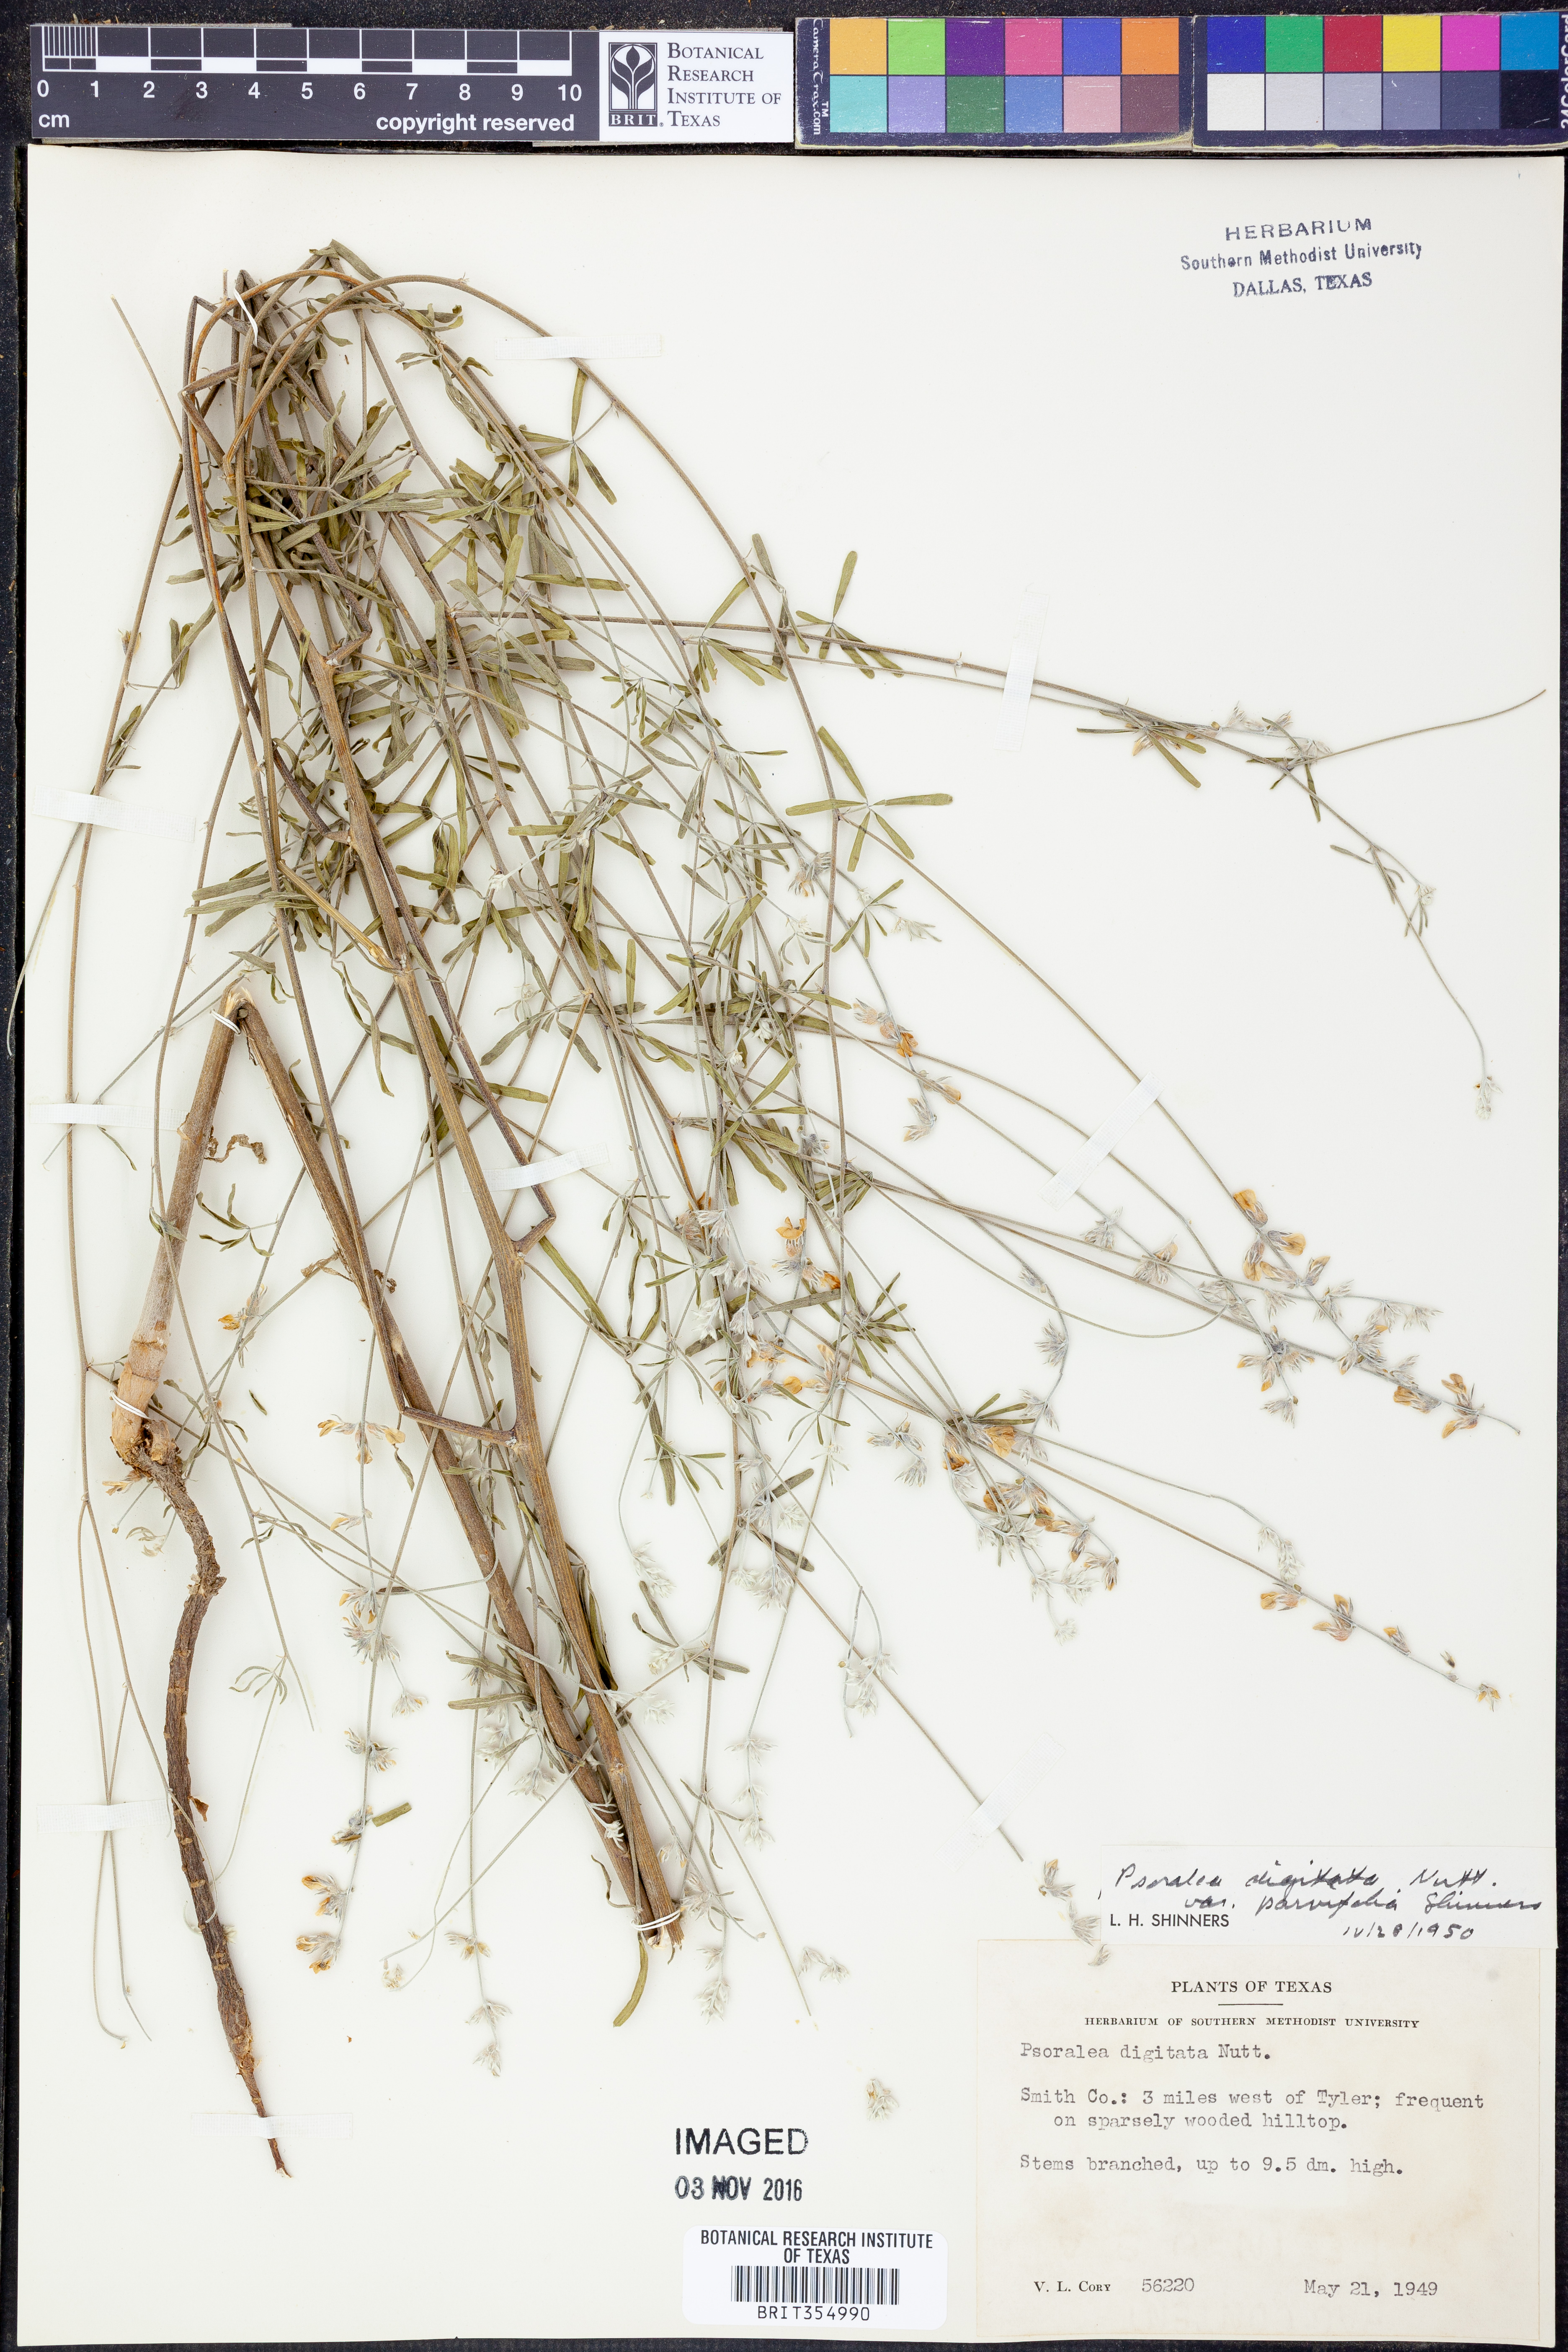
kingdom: Plantae
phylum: Tracheophyta
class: Magnoliopsida
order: Fabales
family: Fabaceae
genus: Pediomelum
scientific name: Pediomelum digitatum
